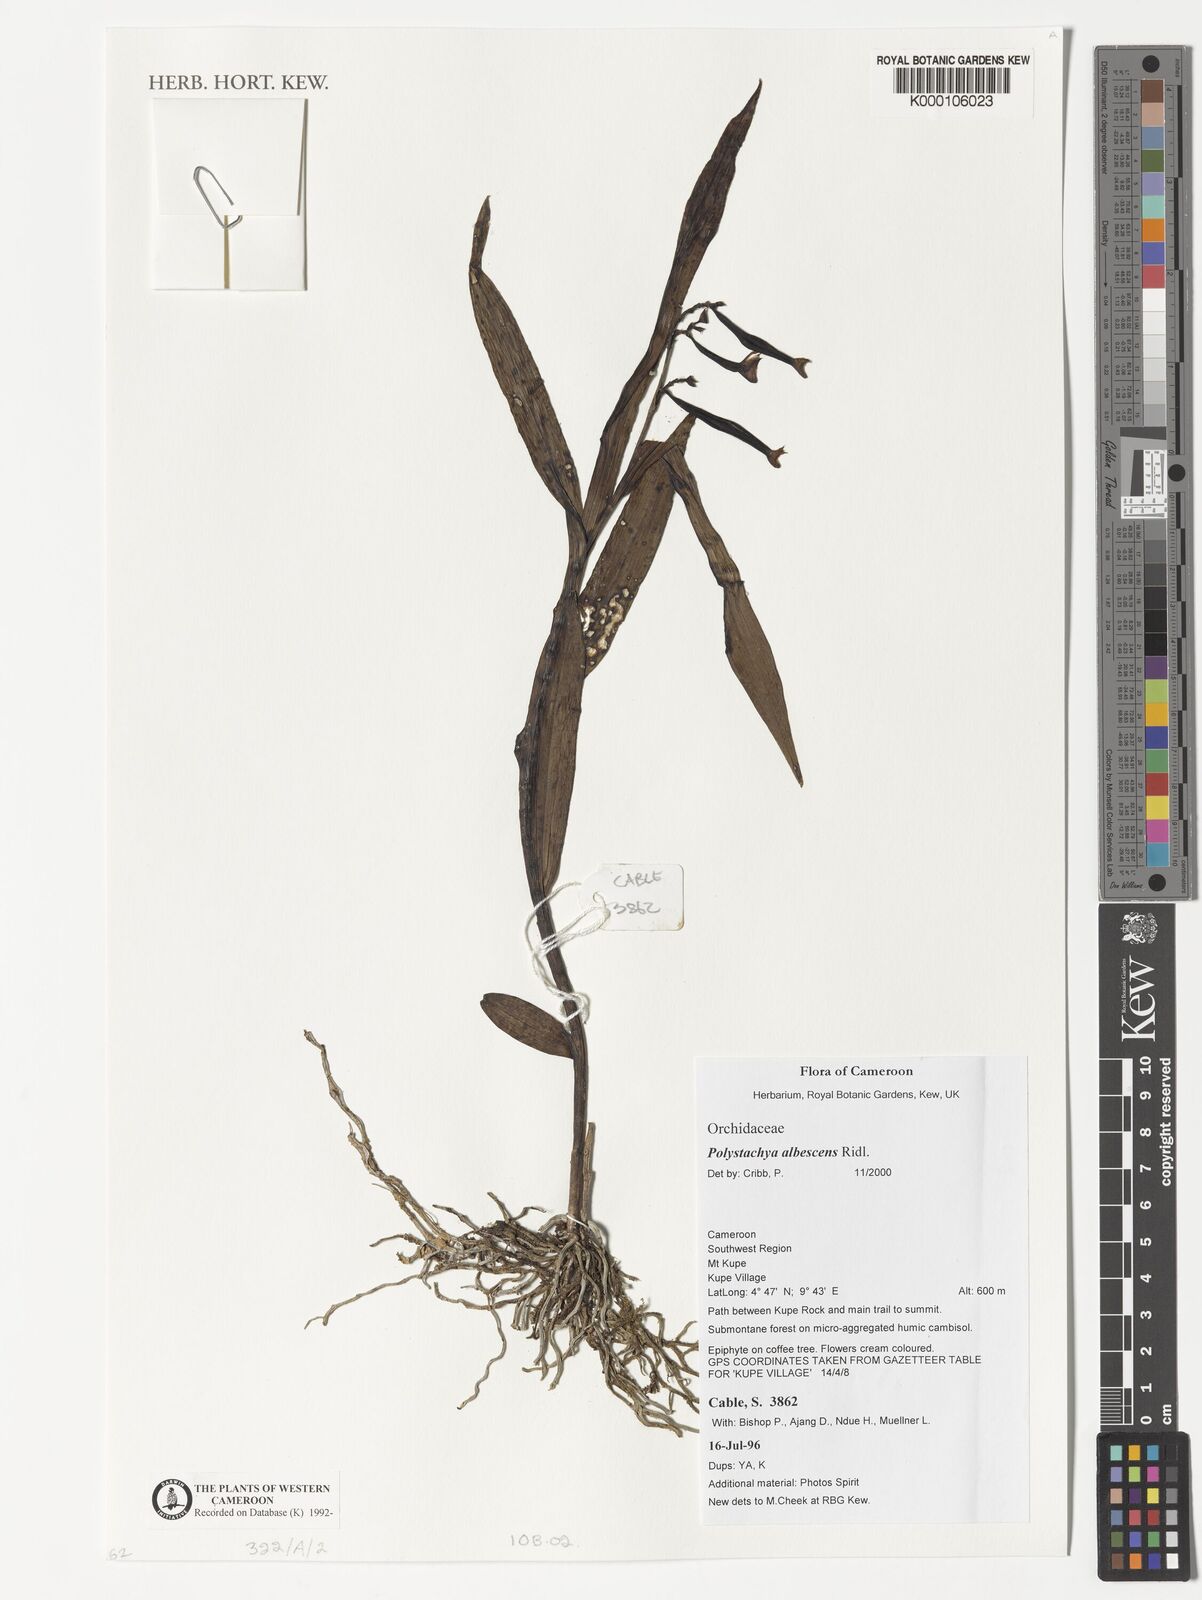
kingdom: Plantae
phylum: Tracheophyta
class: Liliopsida
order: Asparagales
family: Orchidaceae
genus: Polystachya
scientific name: Polystachya albescens
